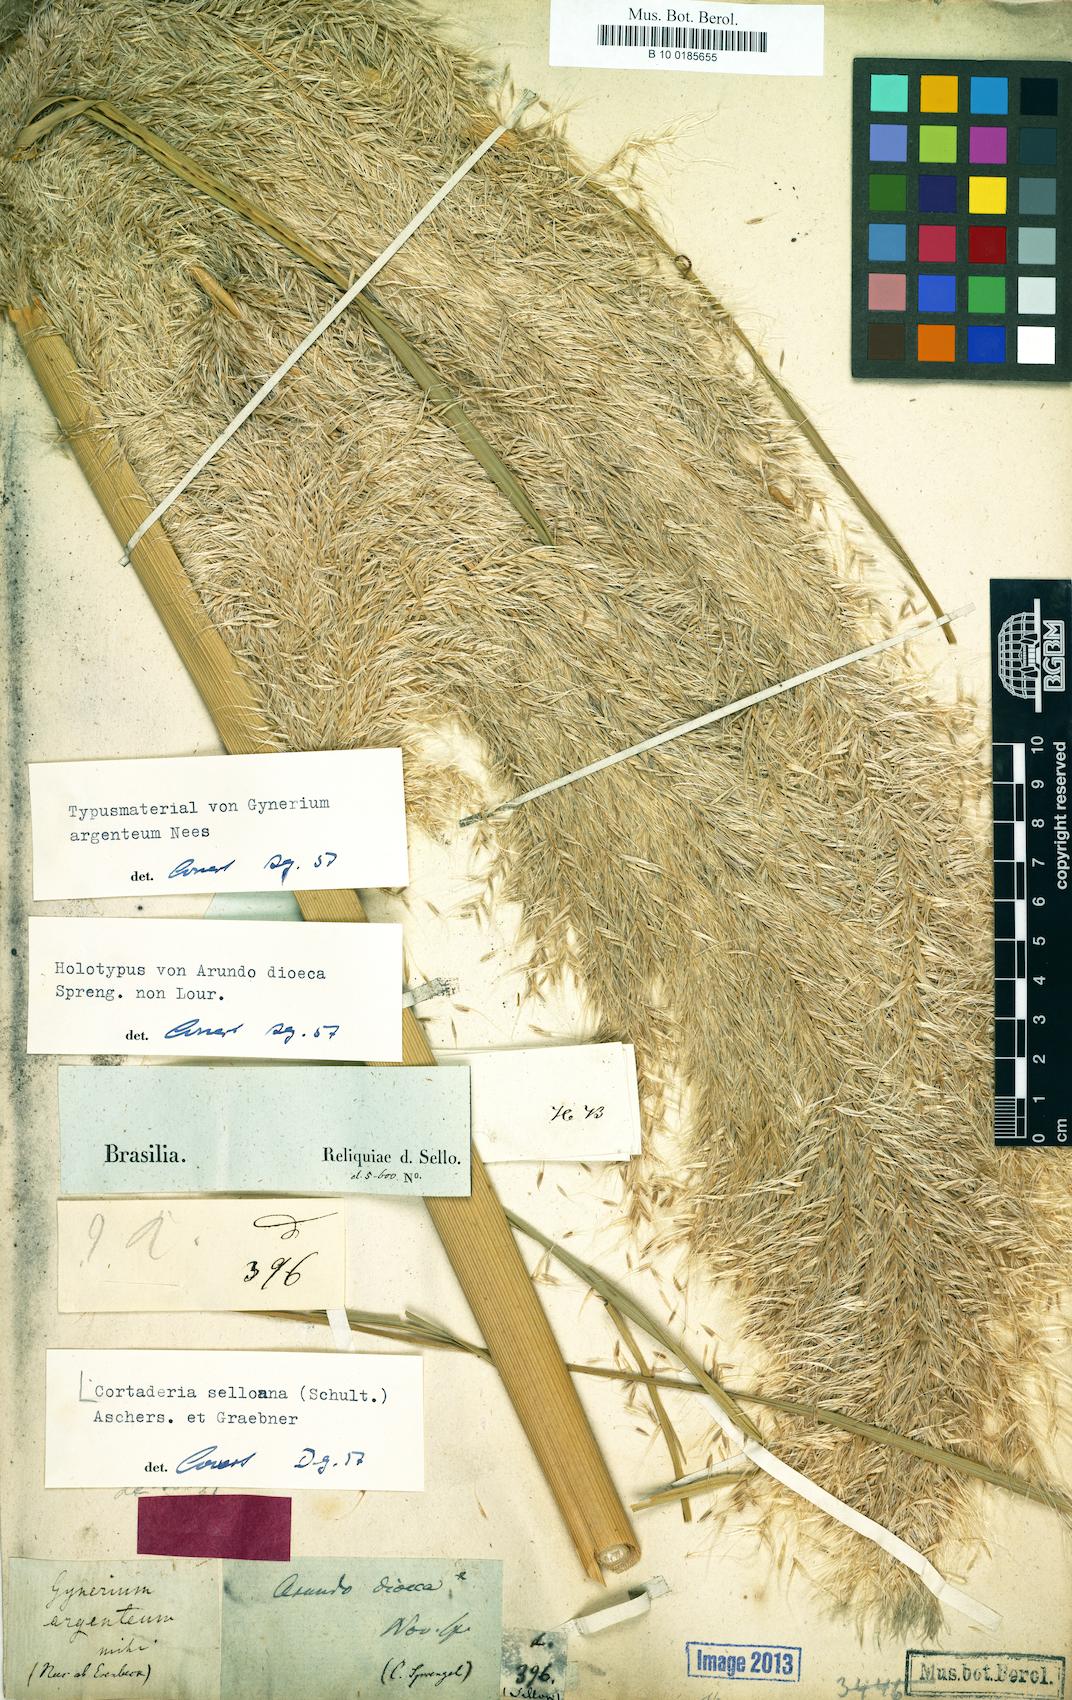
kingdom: Plantae
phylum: Tracheophyta
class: Liliopsida
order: Poales
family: Poaceae
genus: Cortaderia
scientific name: Cortaderia selloana
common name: Uruguayan pampas grass
